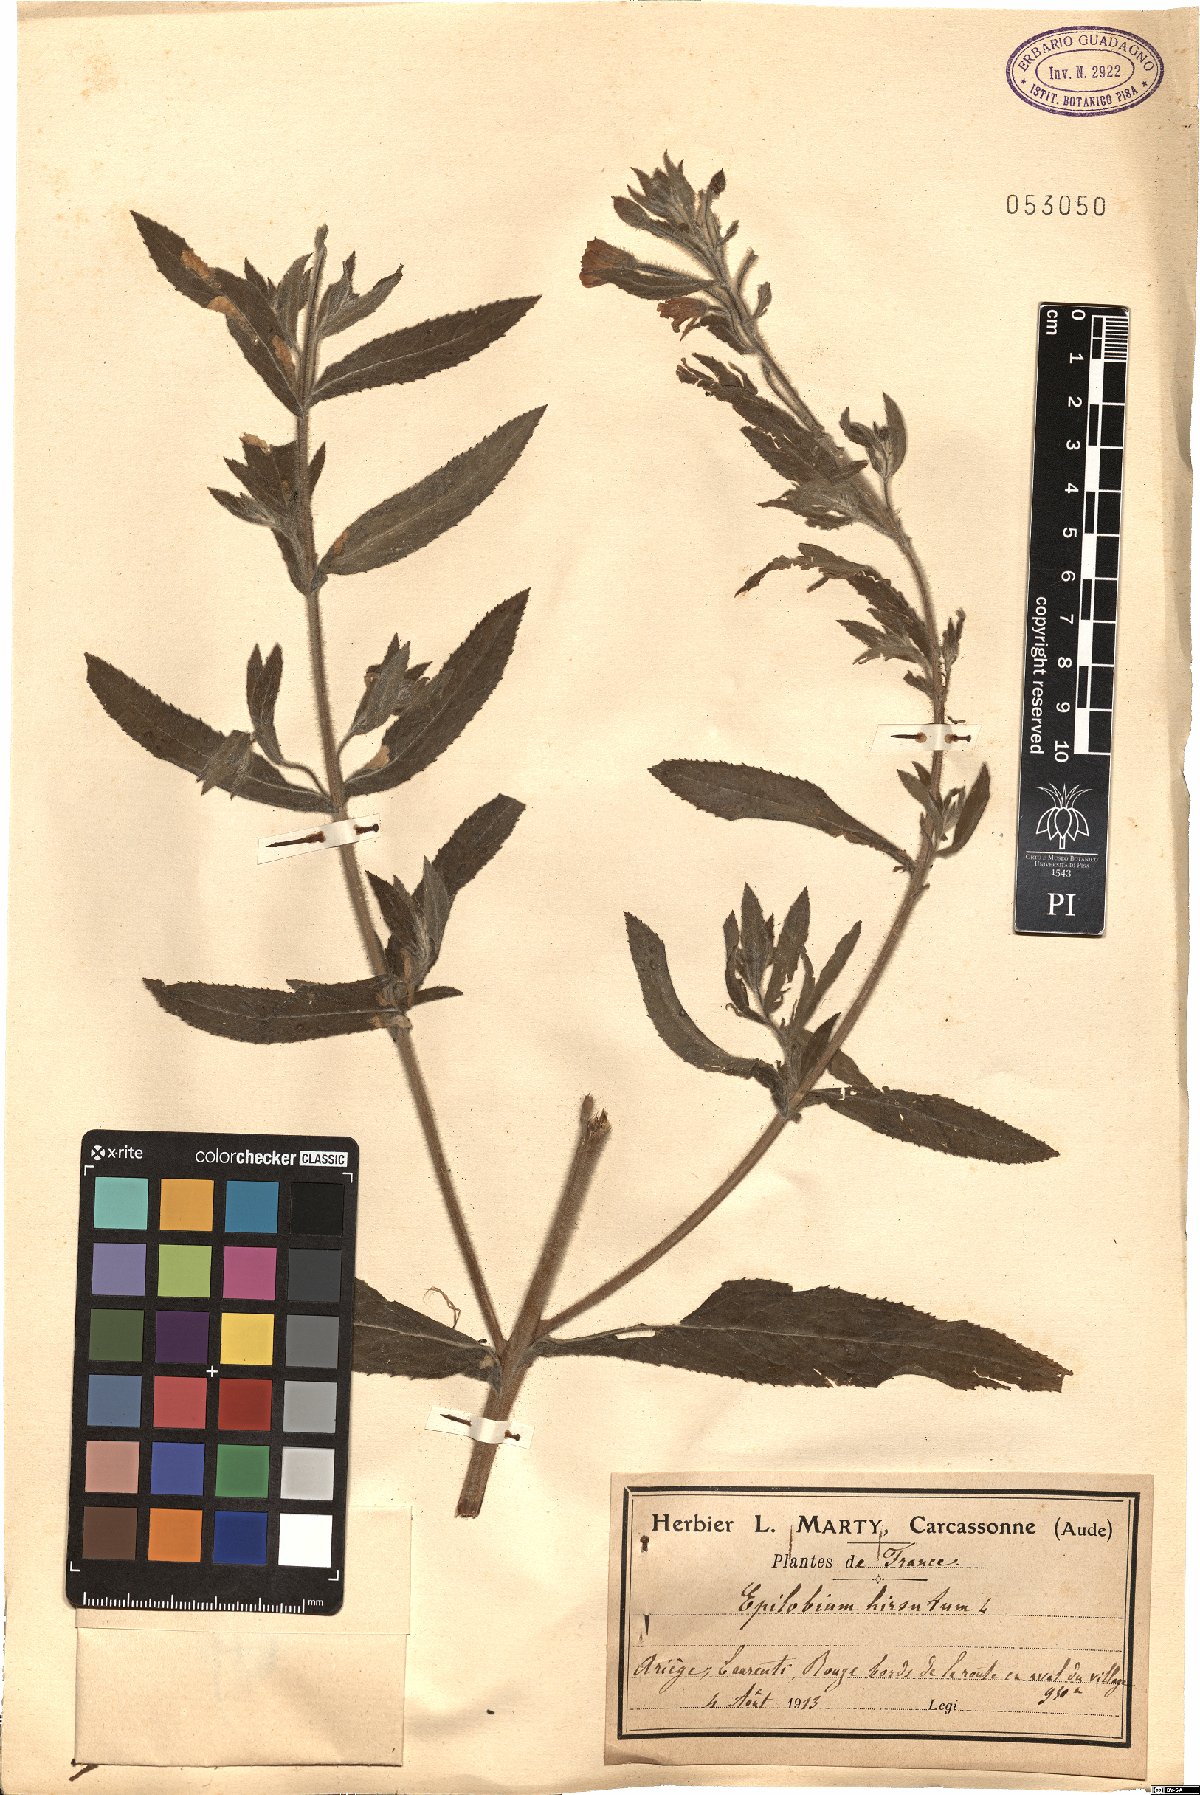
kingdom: Plantae
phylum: Tracheophyta
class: Magnoliopsida
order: Myrtales
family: Onagraceae
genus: Epilobium
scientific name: Epilobium hirsutum
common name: Great willowherb
